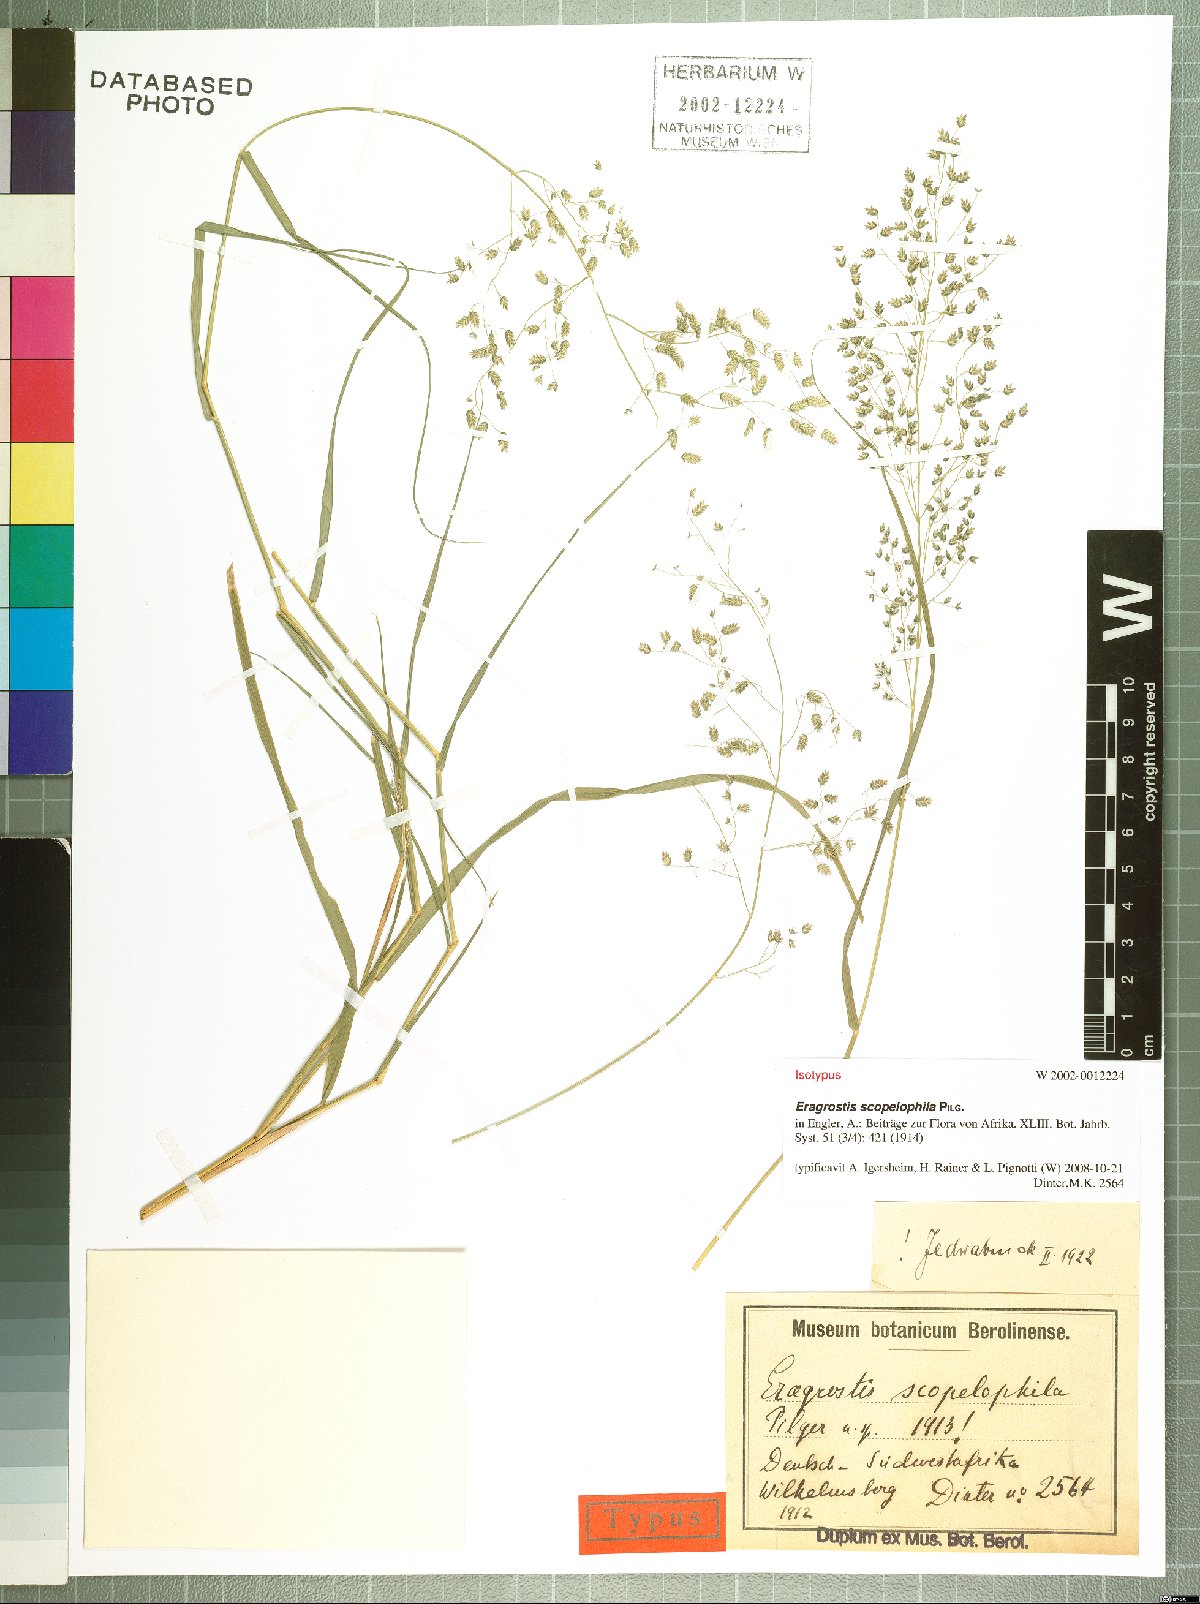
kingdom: Plantae
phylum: Tracheophyta
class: Liliopsida
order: Poales
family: Poaceae
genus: Eragrostis
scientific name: Eragrostis scopelophila
